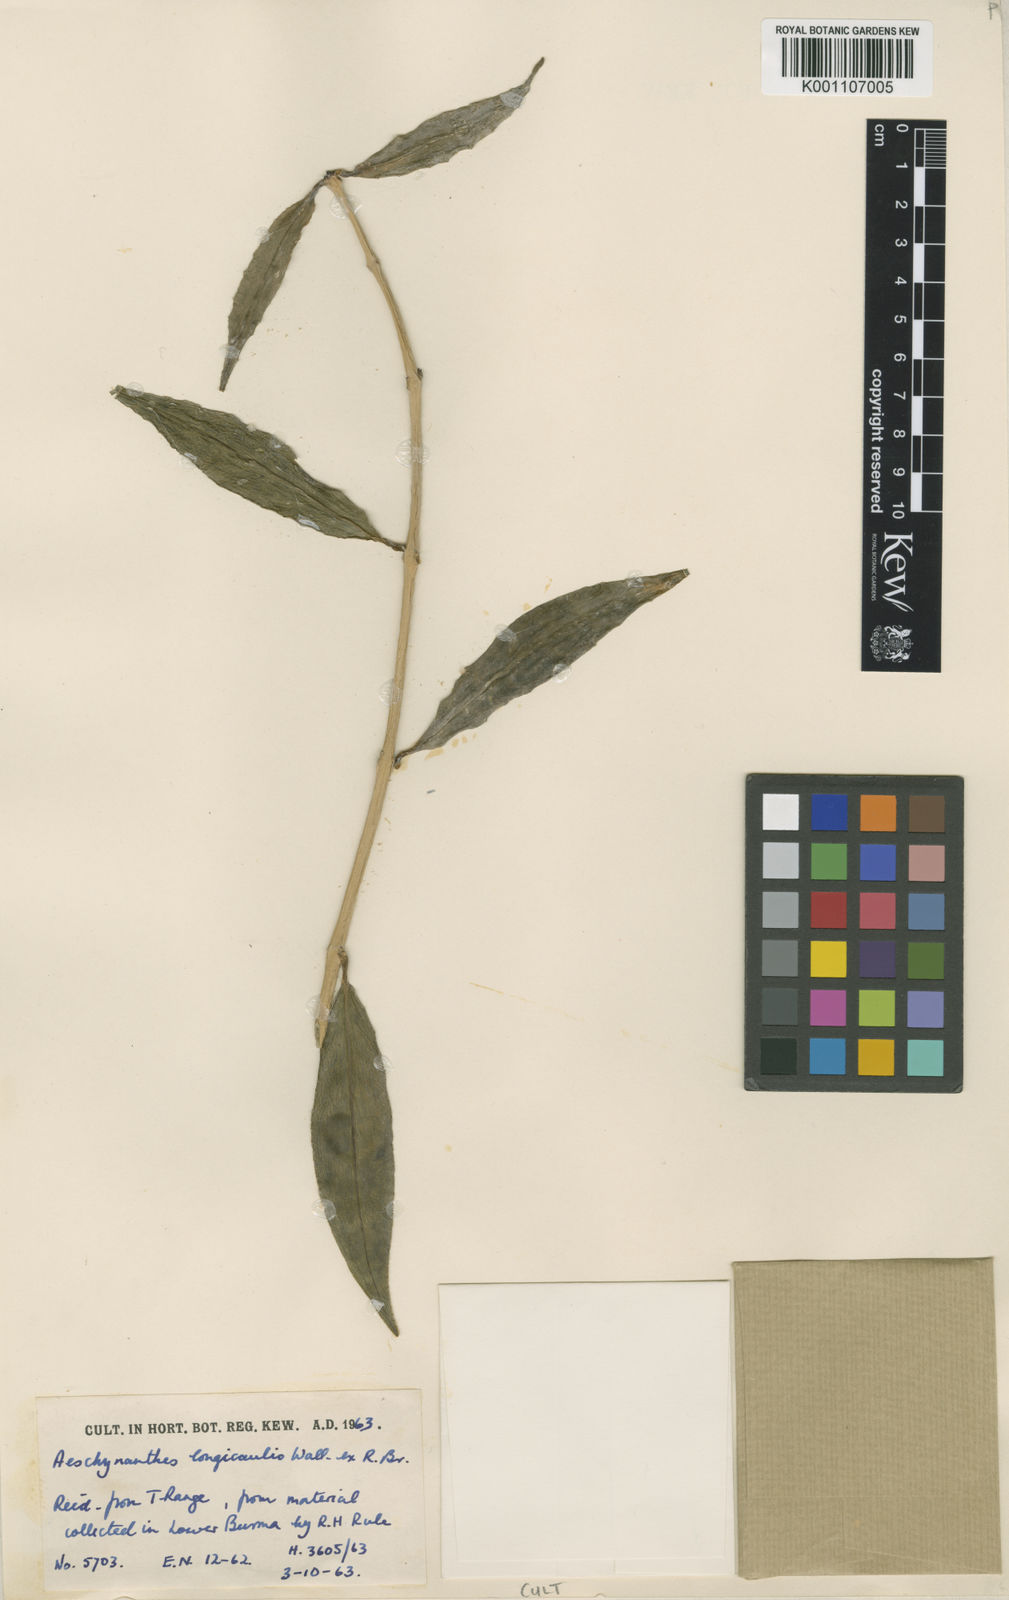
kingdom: Plantae
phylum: Tracheophyta
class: Magnoliopsida
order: Lamiales
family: Gesneriaceae
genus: Aeschynanthus
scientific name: Aeschynanthus longicaulis
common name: Zebra basketvine
